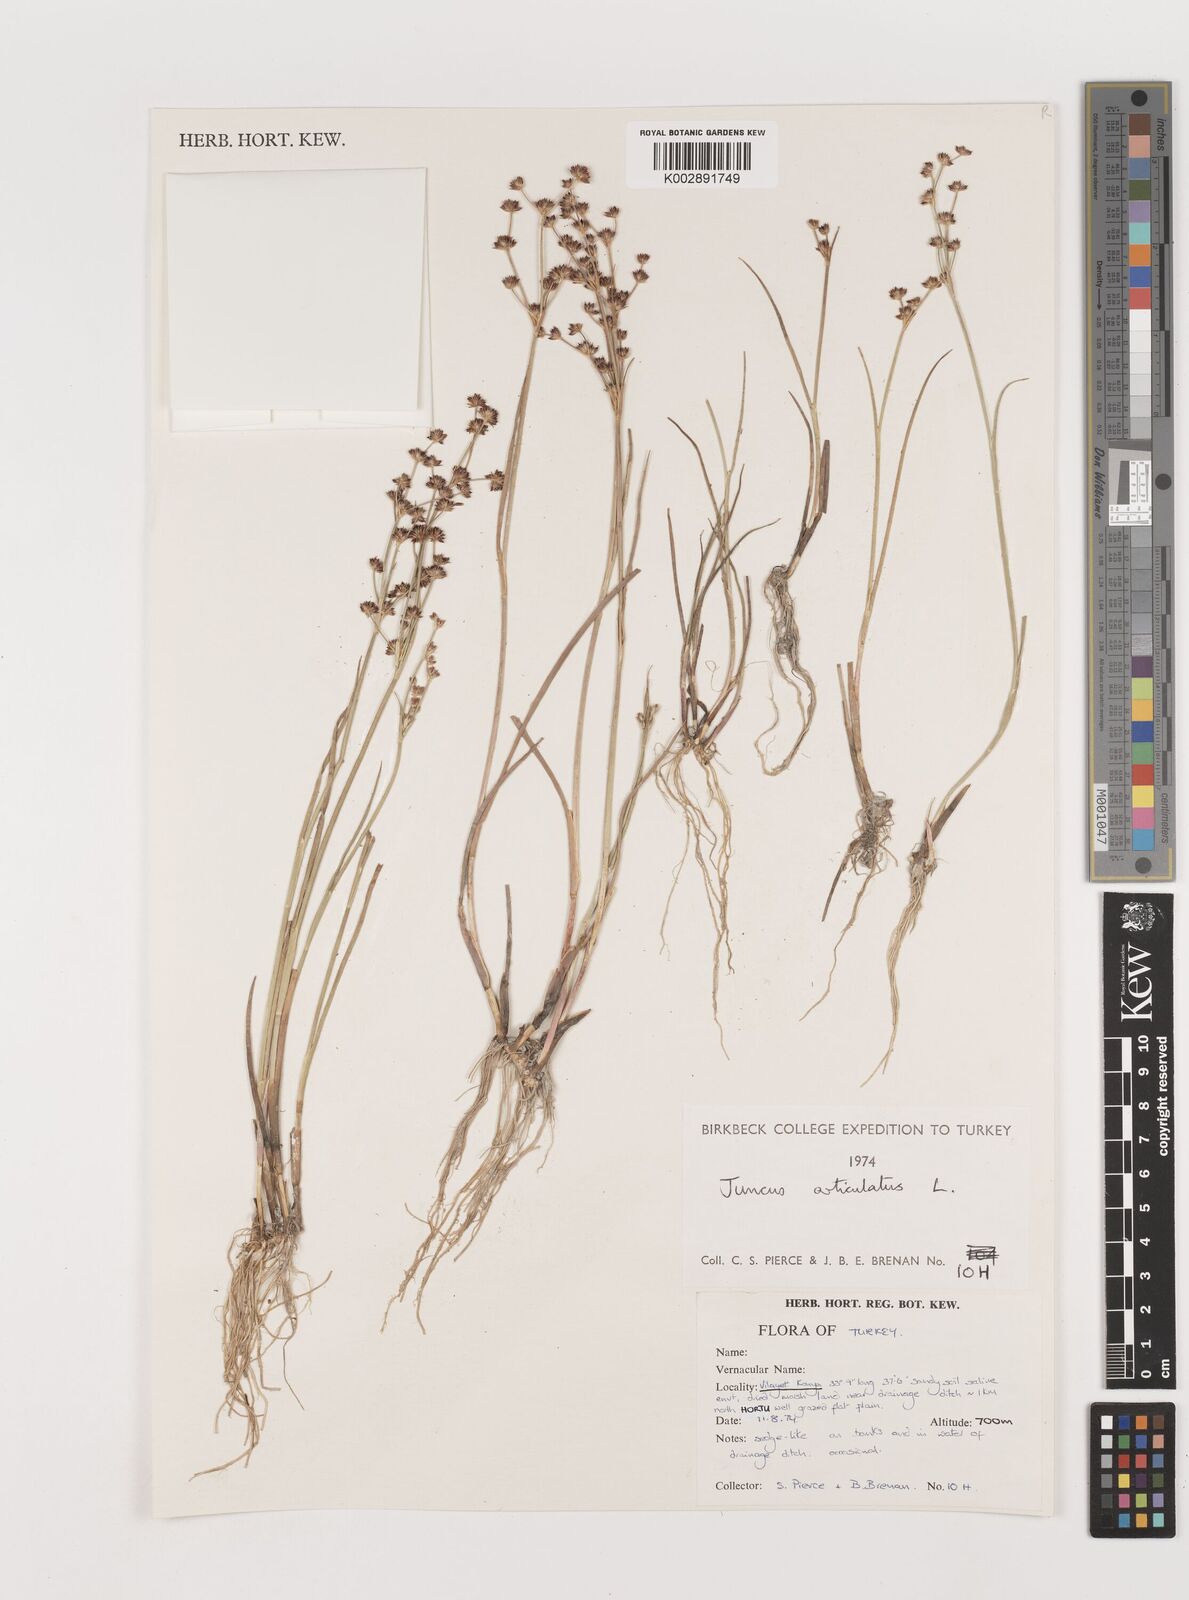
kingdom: Plantae
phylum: Tracheophyta
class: Liliopsida
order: Poales
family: Juncaceae
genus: Juncus
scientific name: Juncus articulatus
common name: Jointed rush
